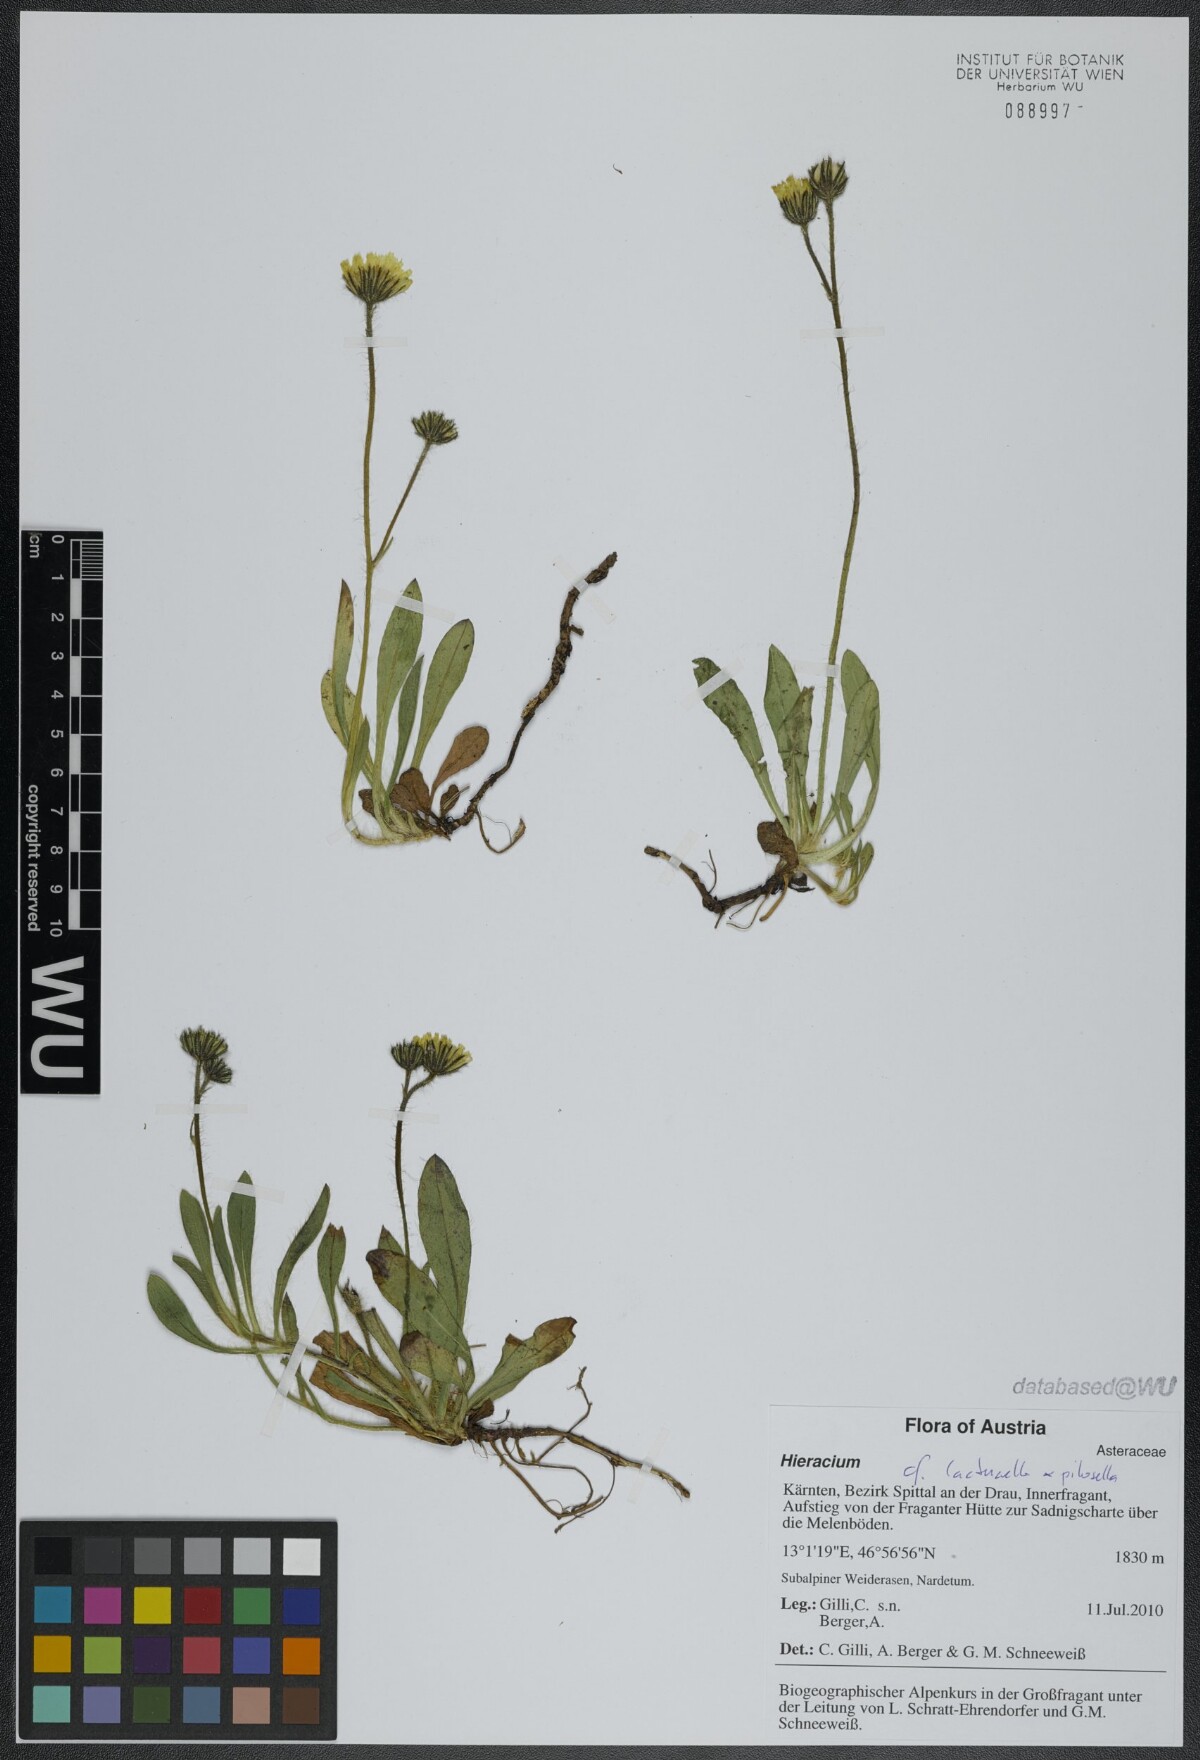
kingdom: Plantae
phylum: Tracheophyta
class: Magnoliopsida
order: Asterales
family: Asteraceae
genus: Hieracium
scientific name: Hieracium
